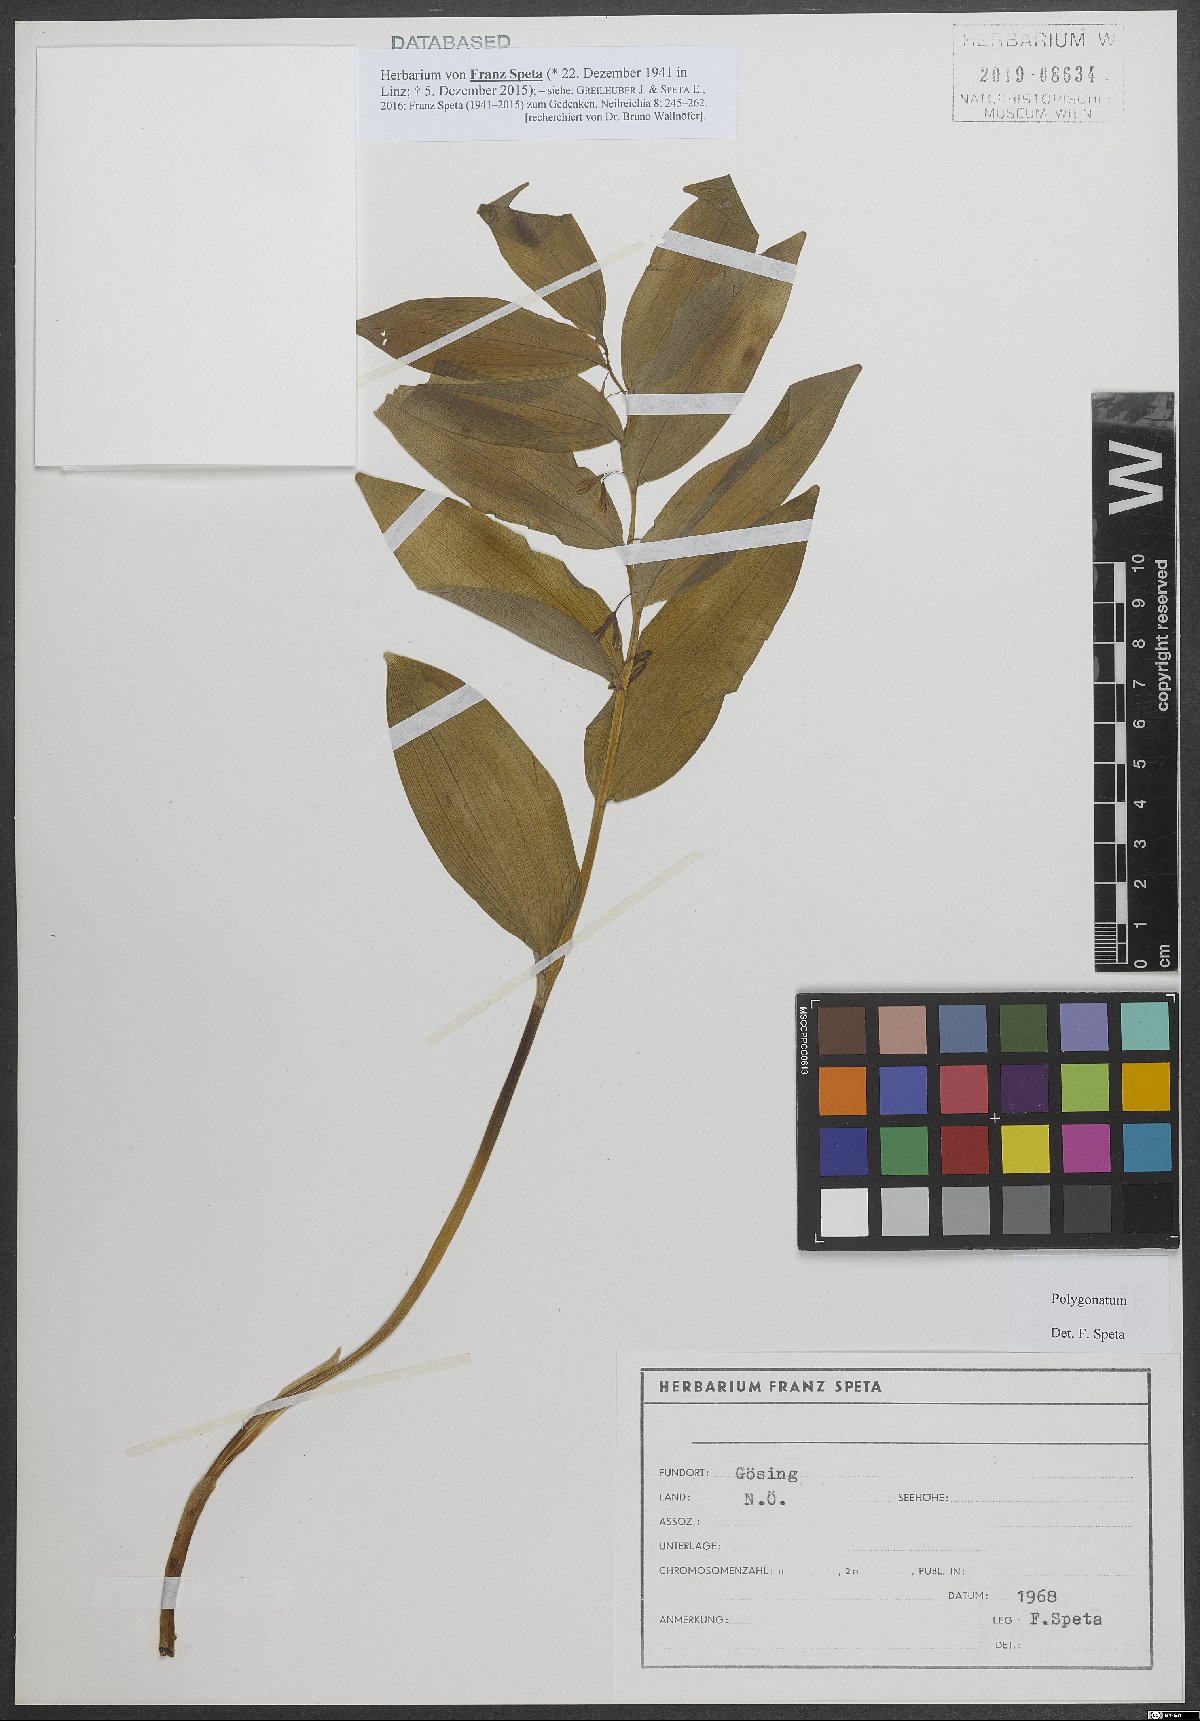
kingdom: Plantae
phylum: Tracheophyta
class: Liliopsida
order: Asparagales
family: Asparagaceae
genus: Polygonatum
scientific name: Polygonatum
